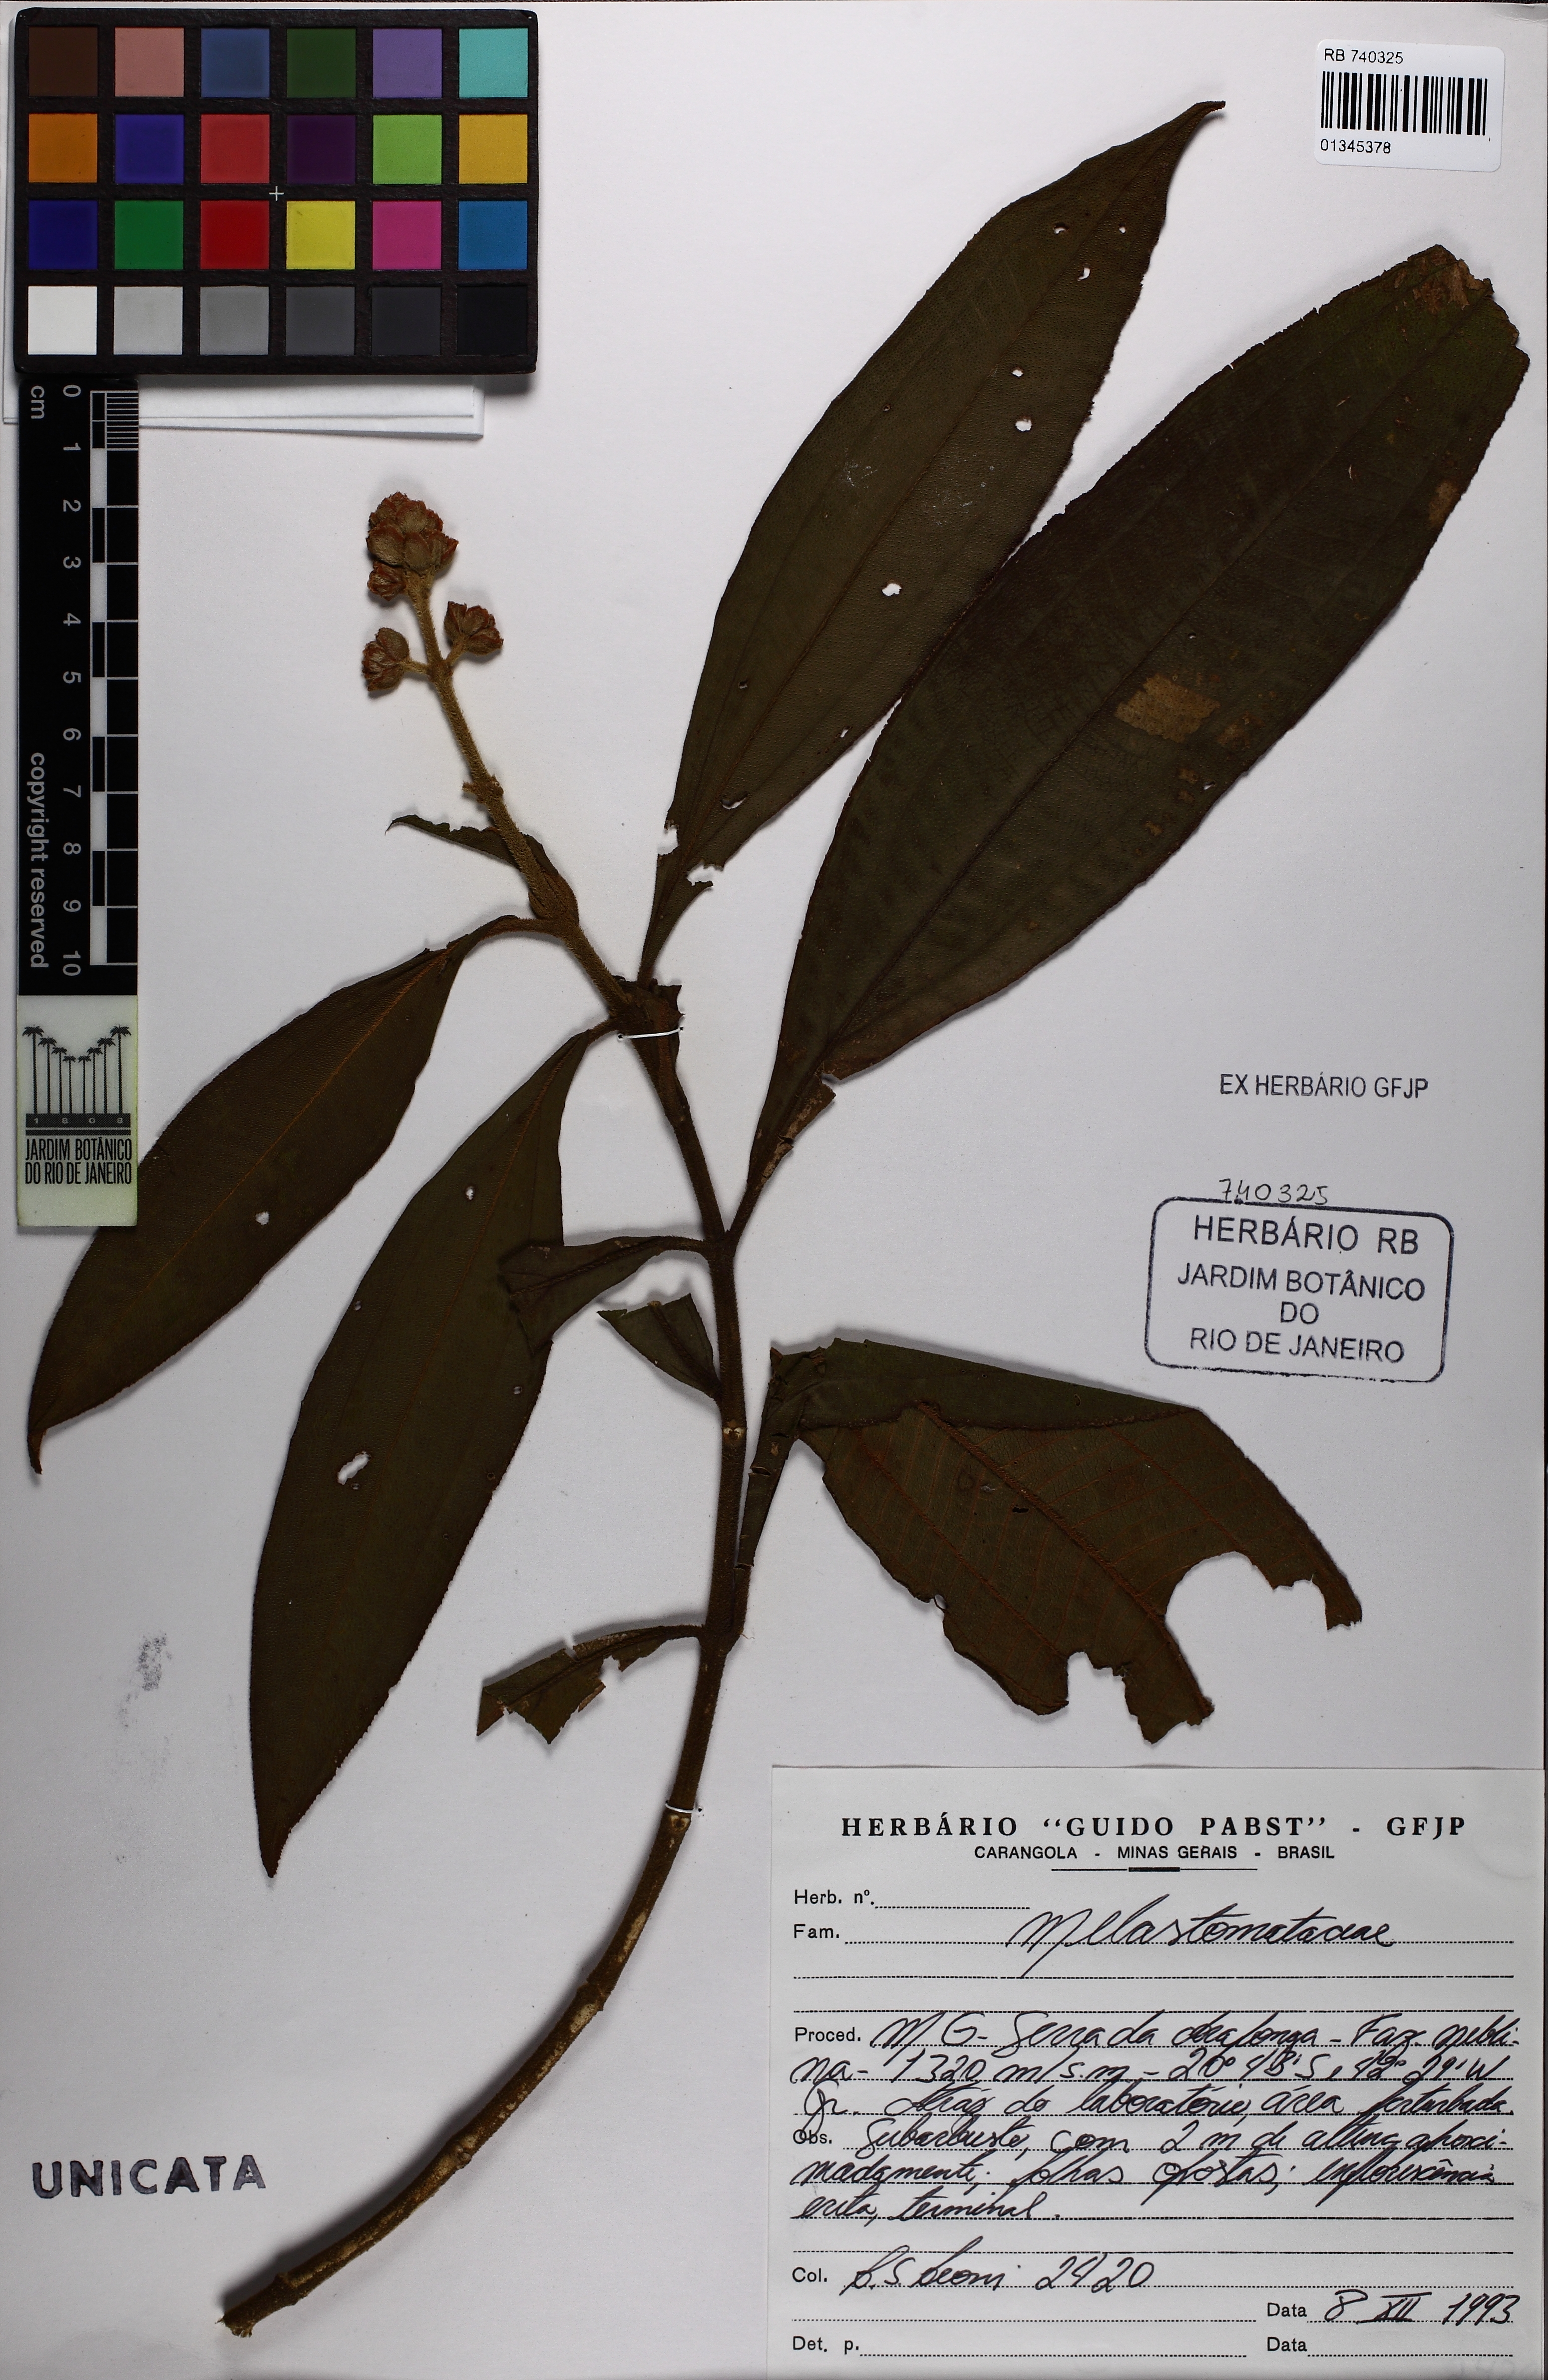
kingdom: Plantae
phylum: Tracheophyta
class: Magnoliopsida
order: Myrtales
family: Melastomataceae
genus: Miconia
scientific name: Miconia melastomoides
